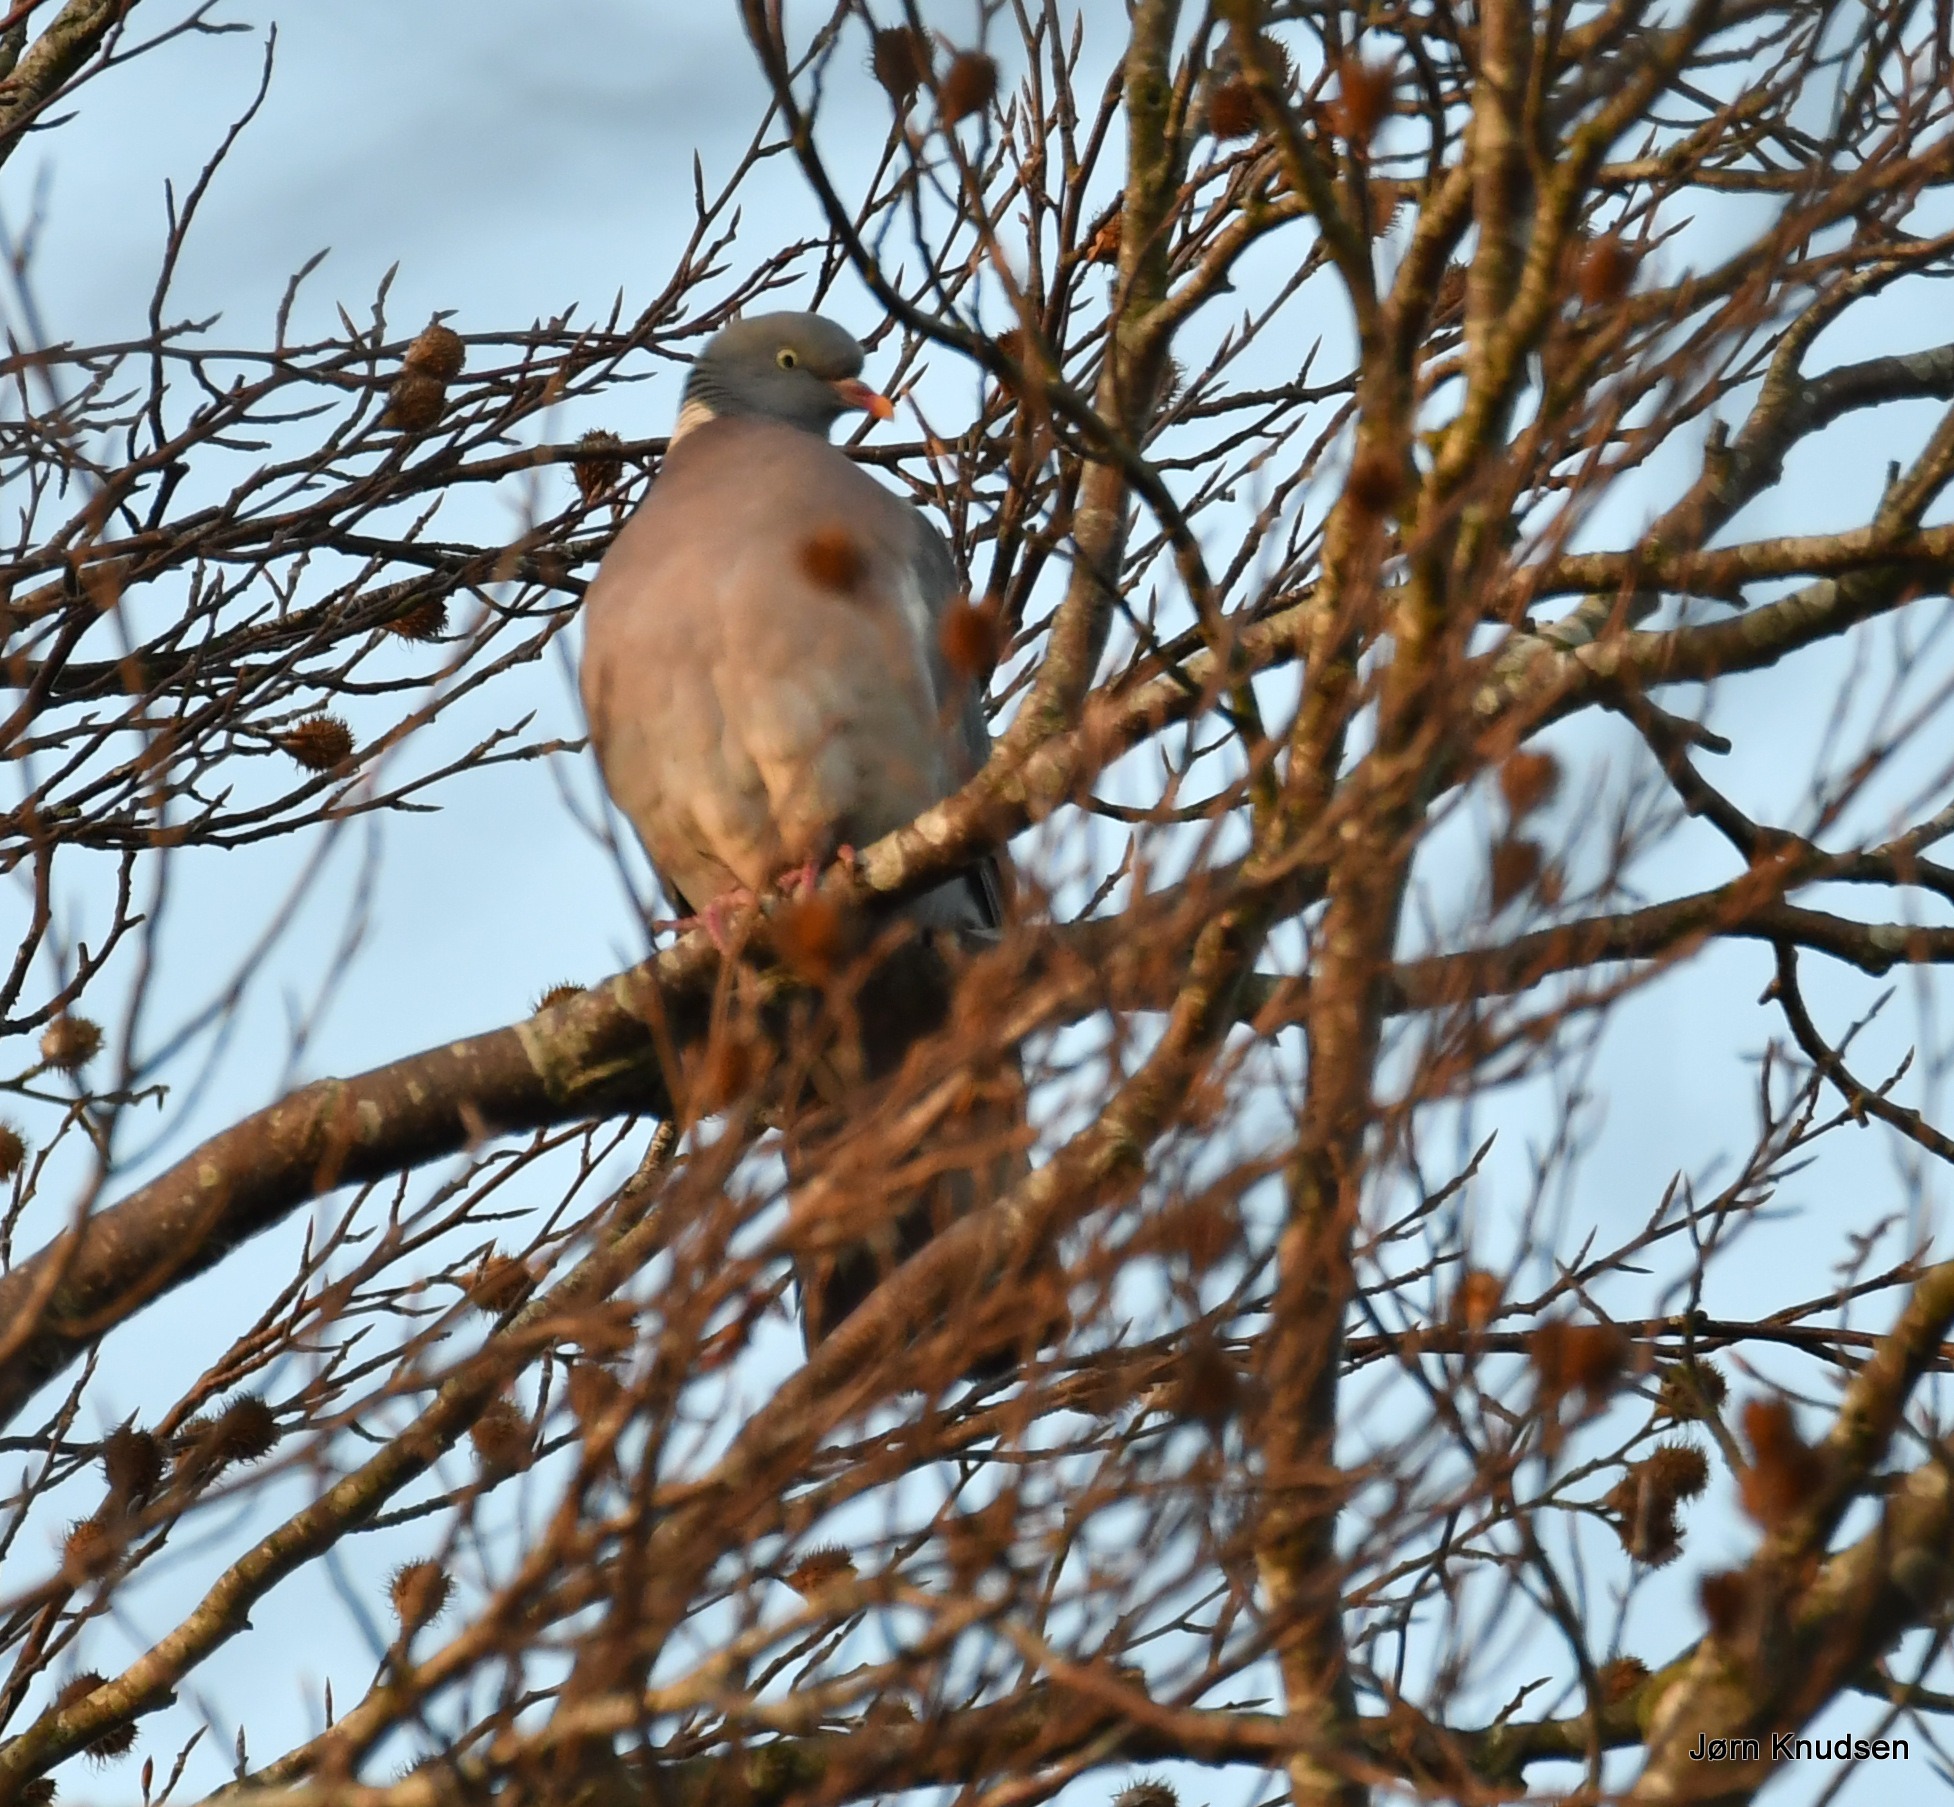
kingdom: Animalia
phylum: Chordata
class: Aves
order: Columbiformes
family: Columbidae
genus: Columba
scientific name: Columba palumbus
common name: Ringdue
